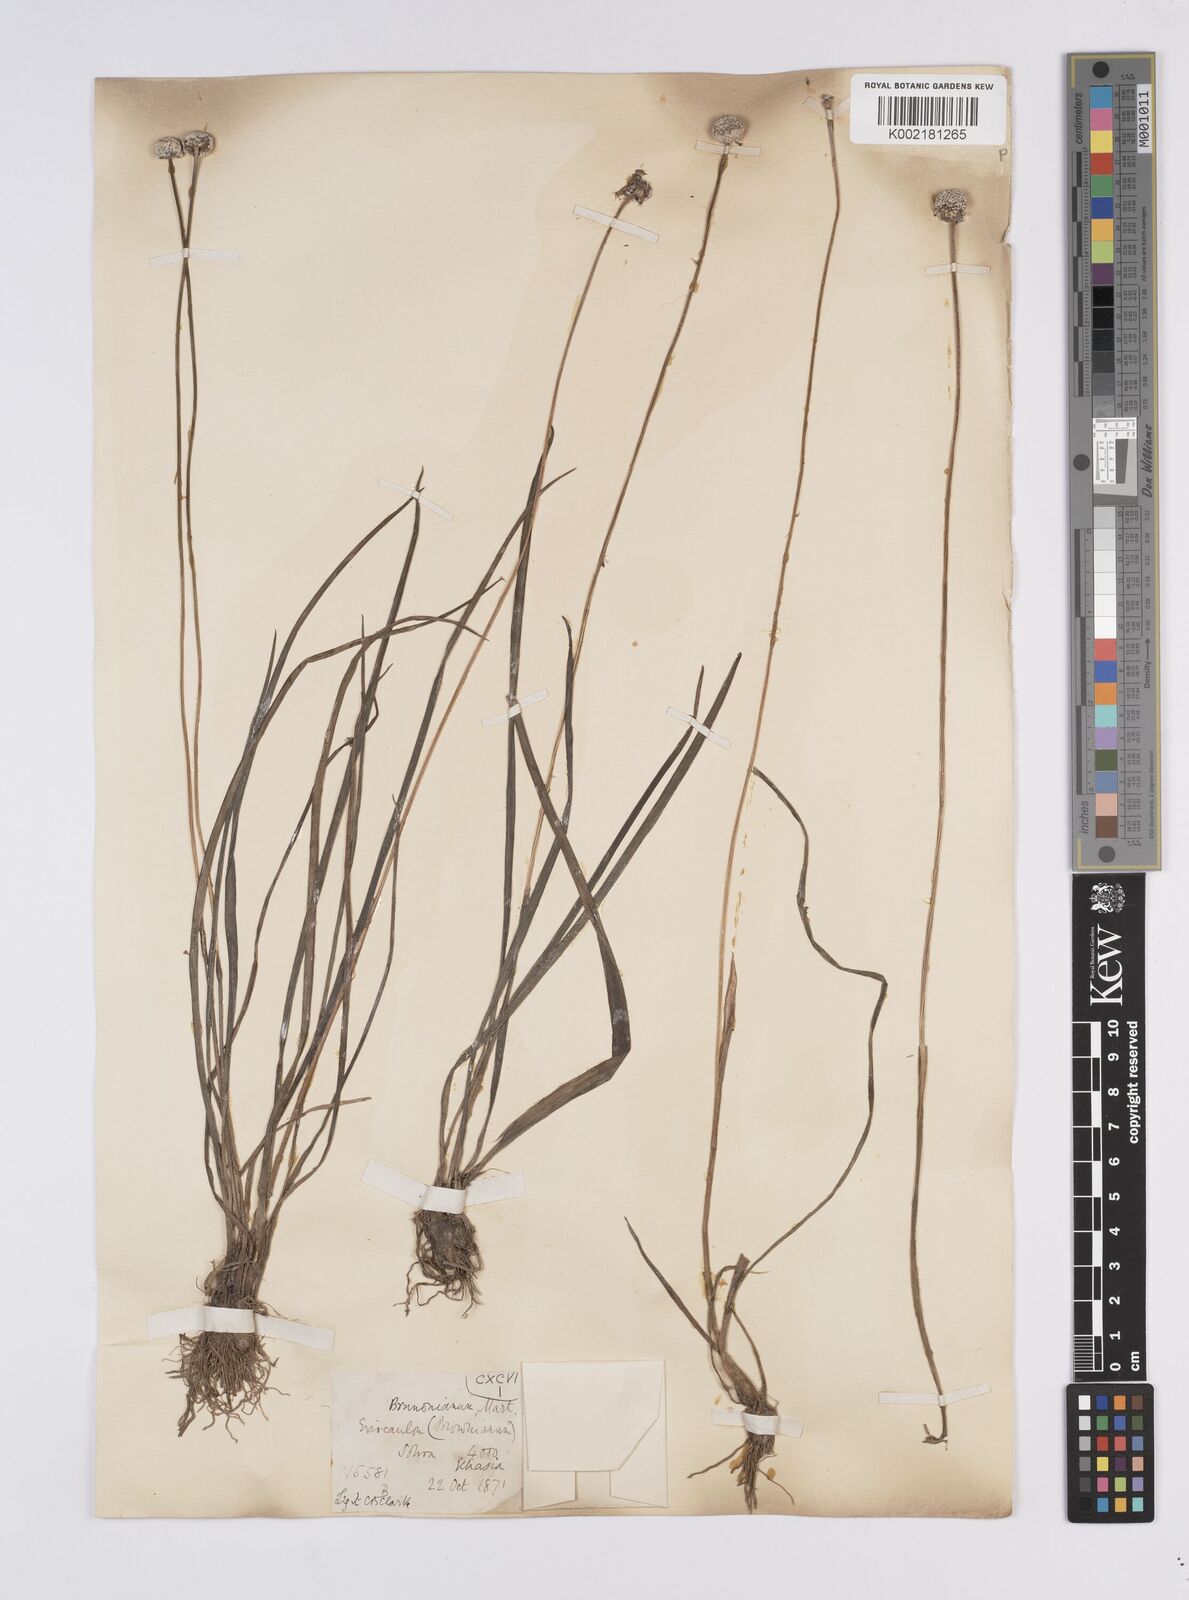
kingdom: Plantae
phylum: Tracheophyta
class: Liliopsida
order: Poales
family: Eriocaulaceae
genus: Eriocaulon
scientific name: Eriocaulon brownianum
